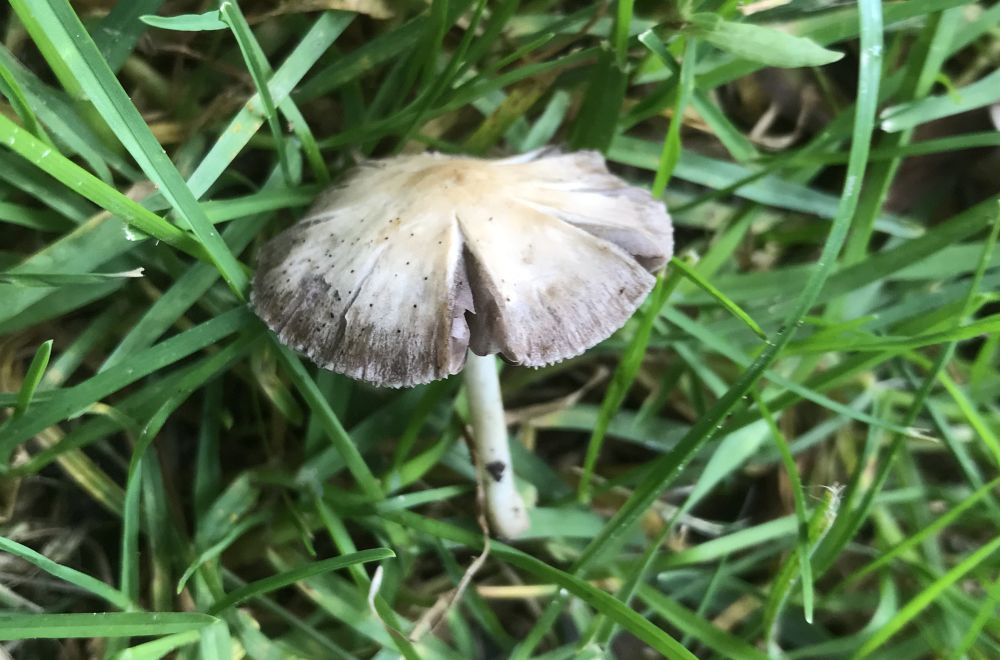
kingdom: Fungi
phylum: Basidiomycota
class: Agaricomycetes
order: Agaricales
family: Psathyrellaceae
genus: Psathyrella
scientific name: Psathyrella
